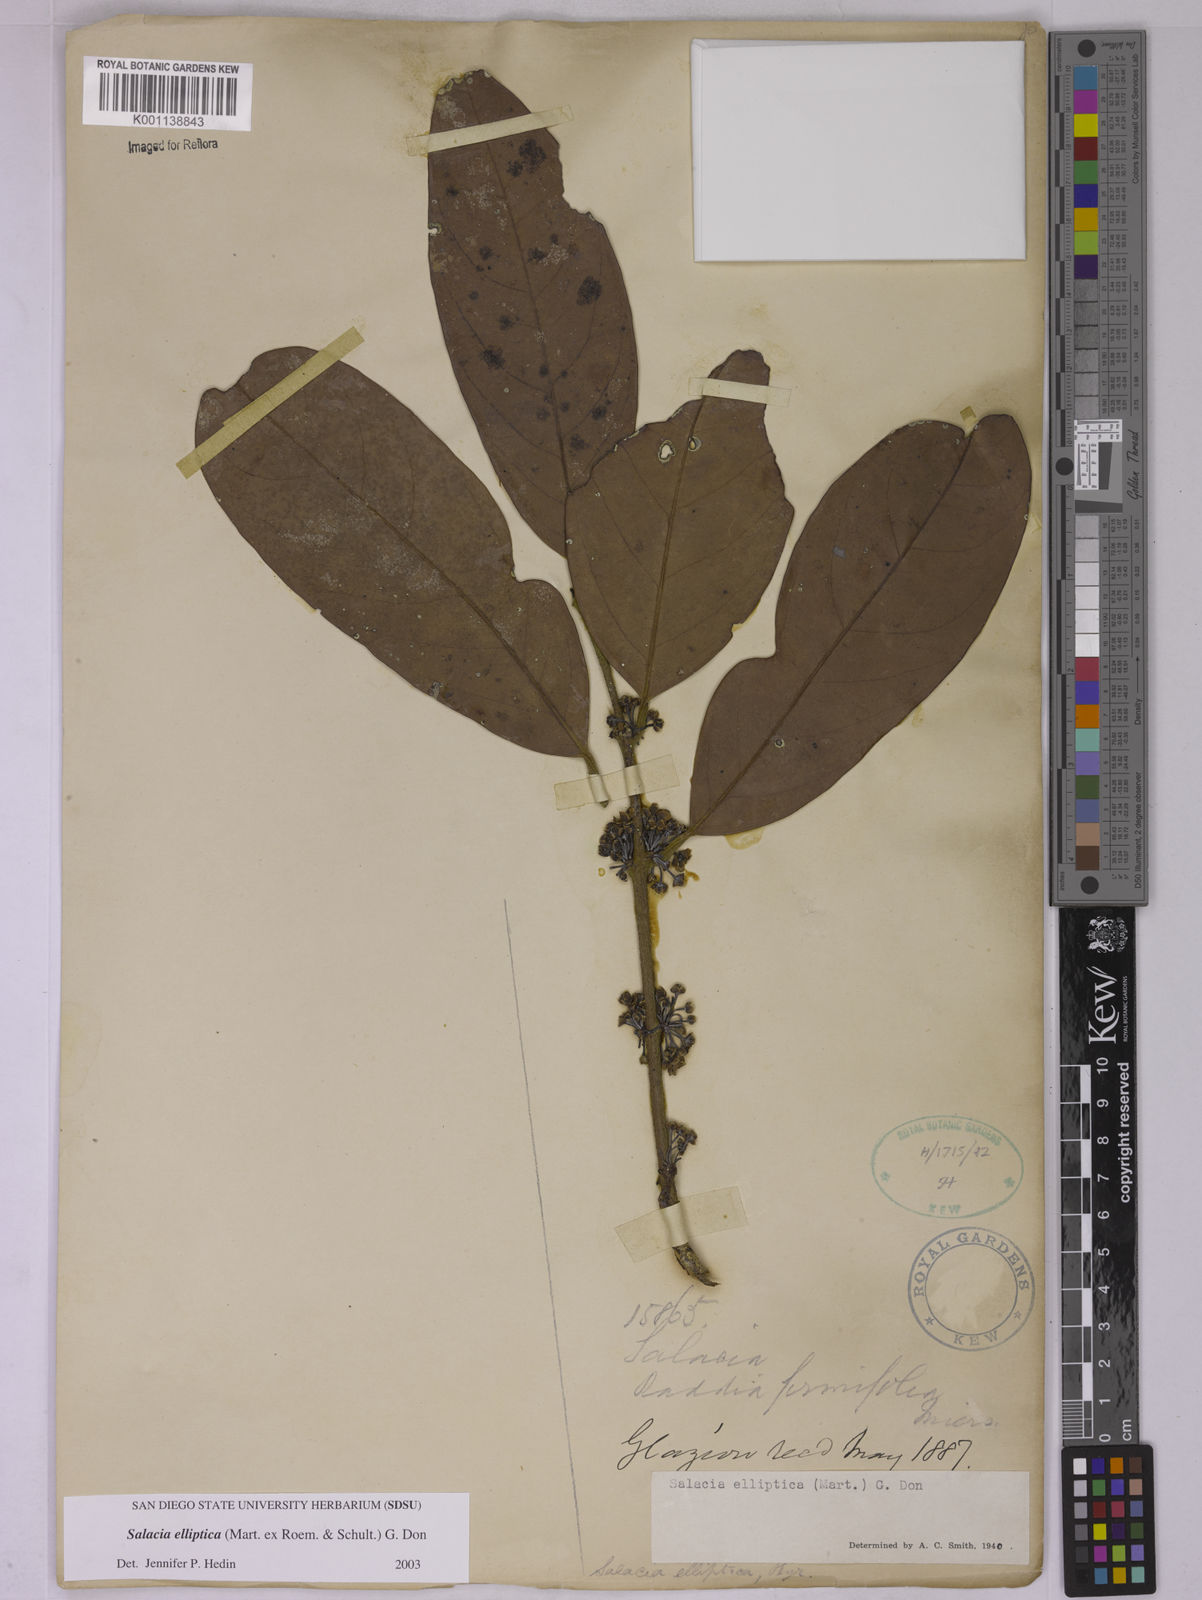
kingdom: Plantae
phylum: Tracheophyta
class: Magnoliopsida
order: Celastrales
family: Celastraceae
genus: Salacia
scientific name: Salacia elliptica
